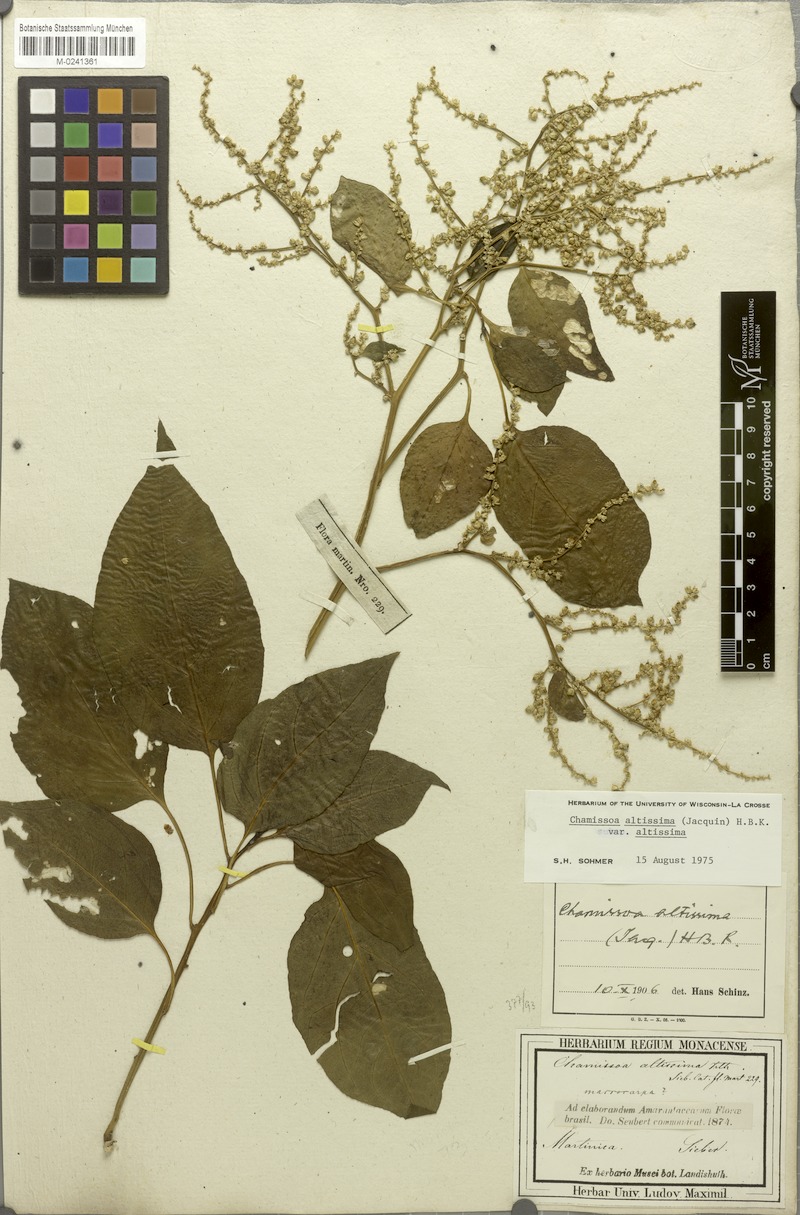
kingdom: Plantae
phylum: Tracheophyta
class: Magnoliopsida
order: Caryophyllales
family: Amaranthaceae
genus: Chamissoa
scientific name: Chamissoa altissima
